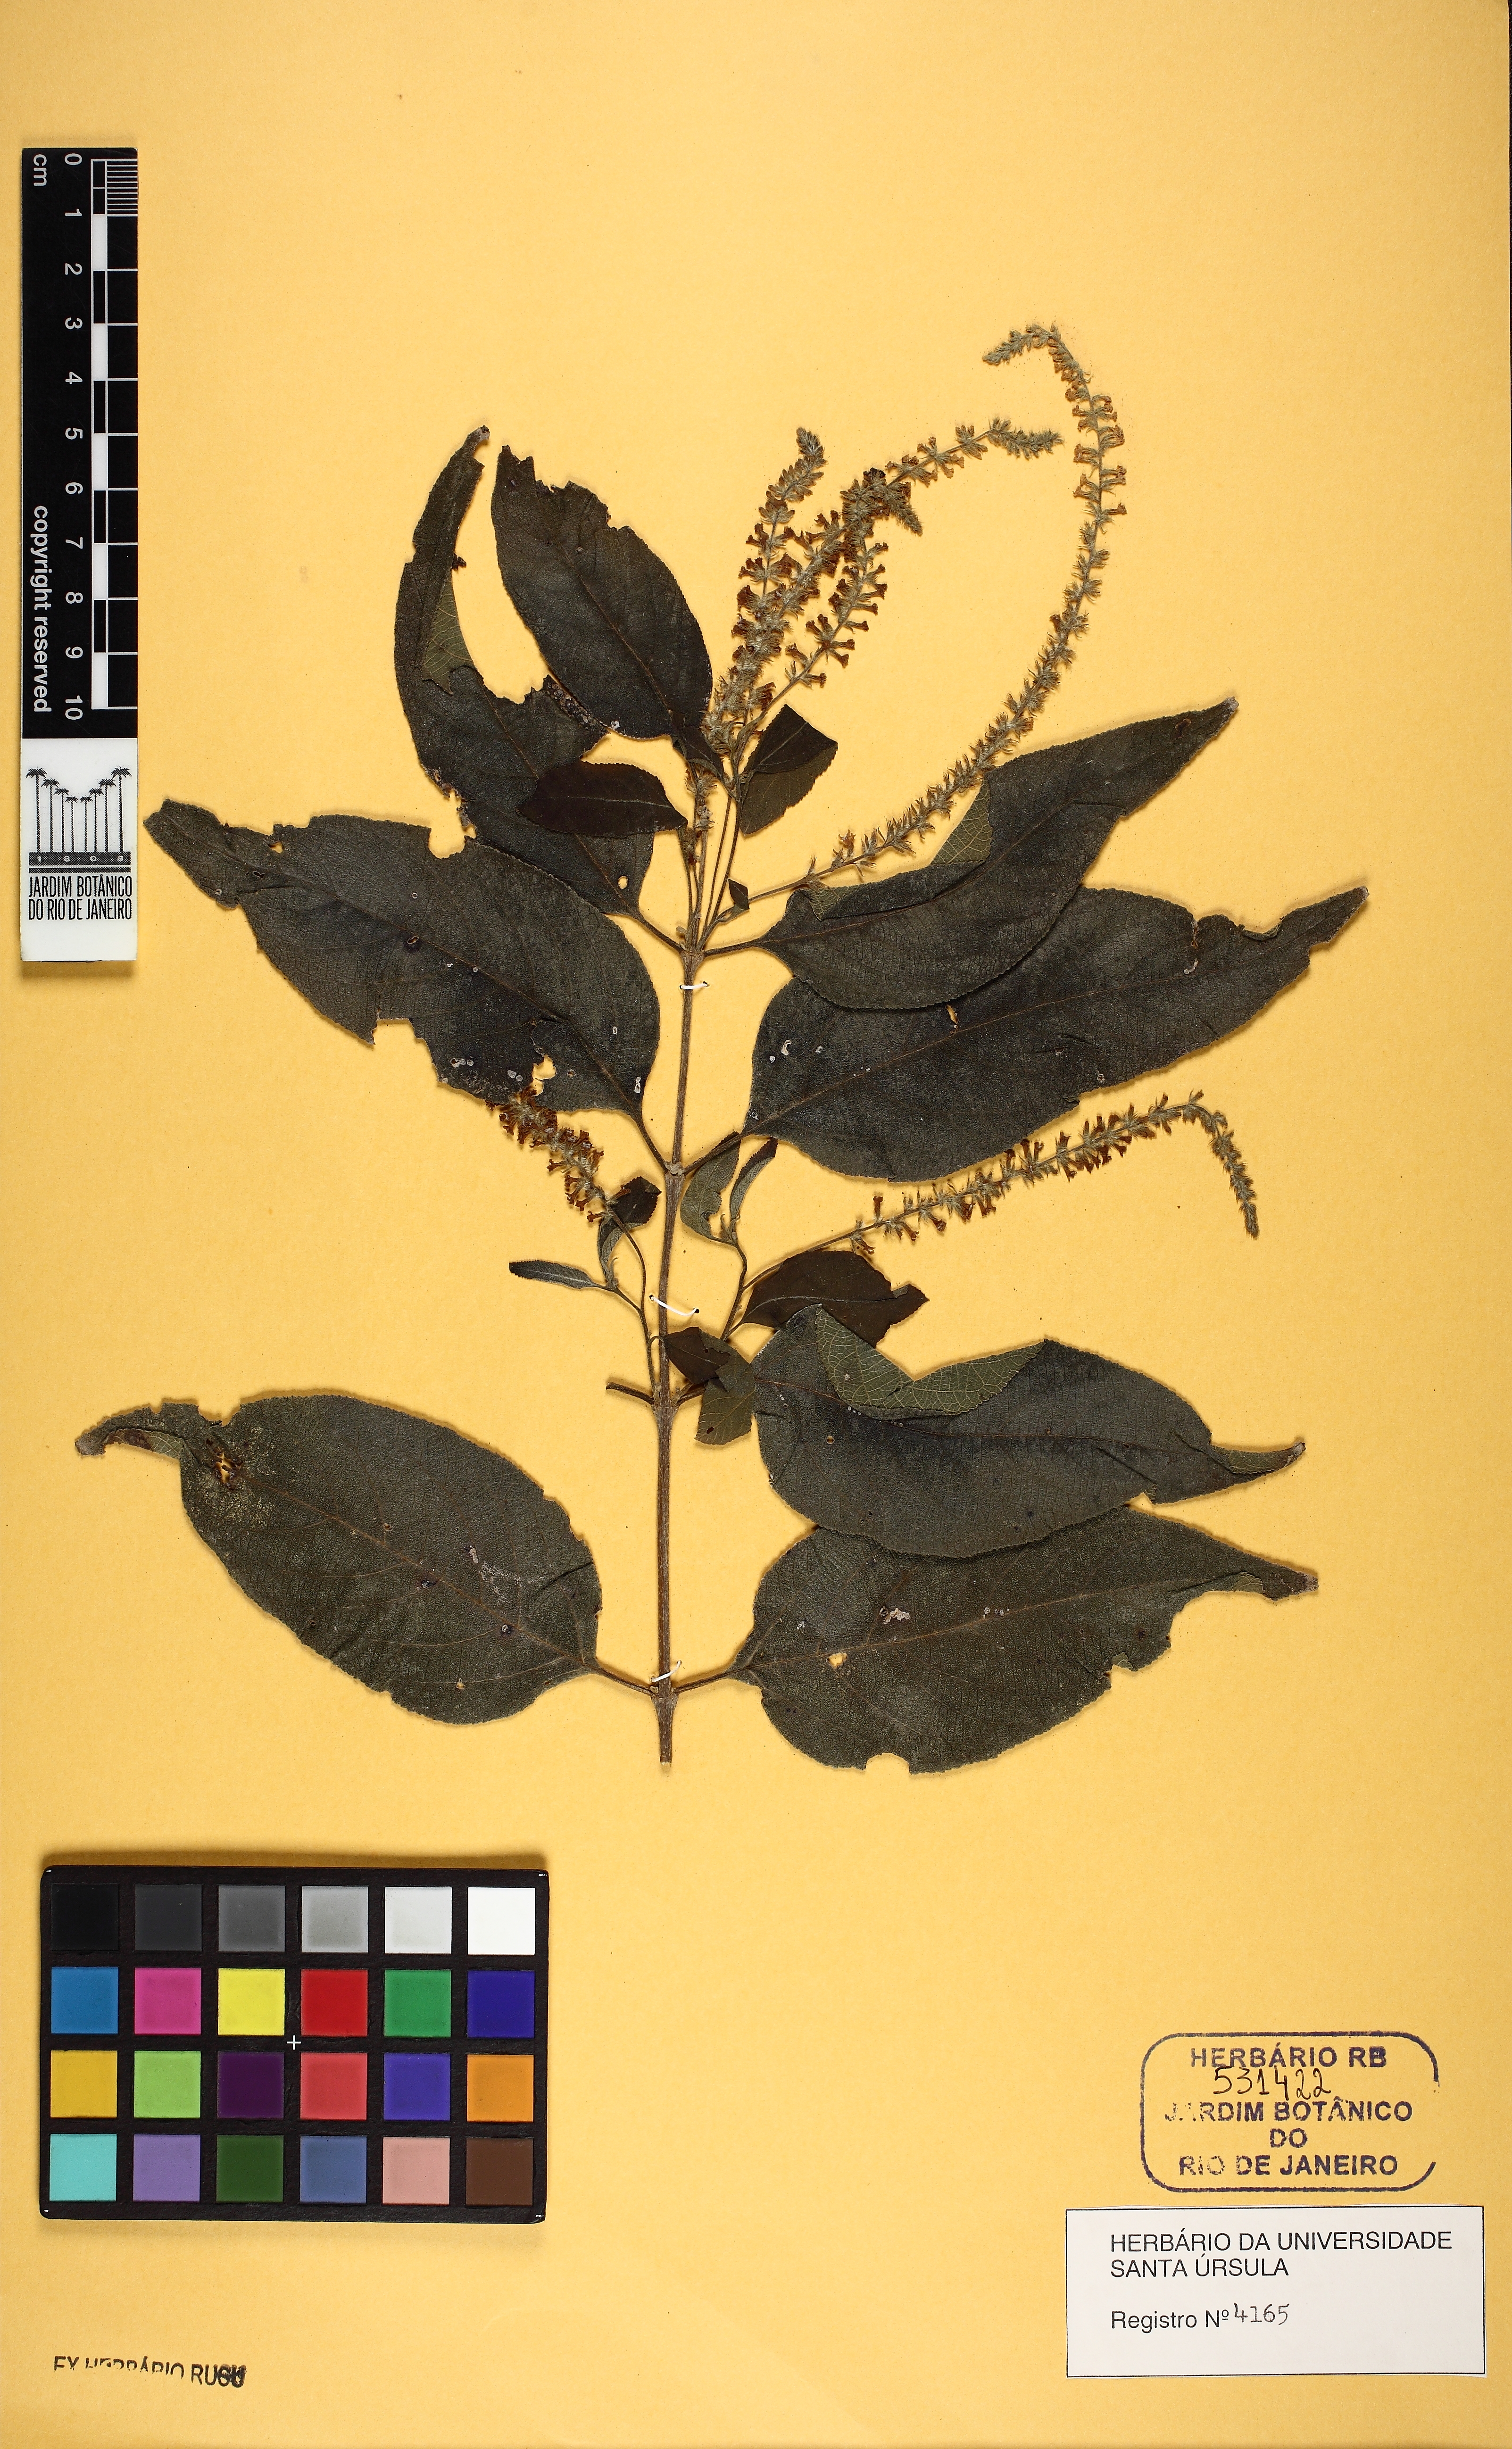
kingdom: Plantae
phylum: Tracheophyta
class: Magnoliopsida
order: Lamiales
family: Verbenaceae
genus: Aloysia
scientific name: Aloysia virgata
